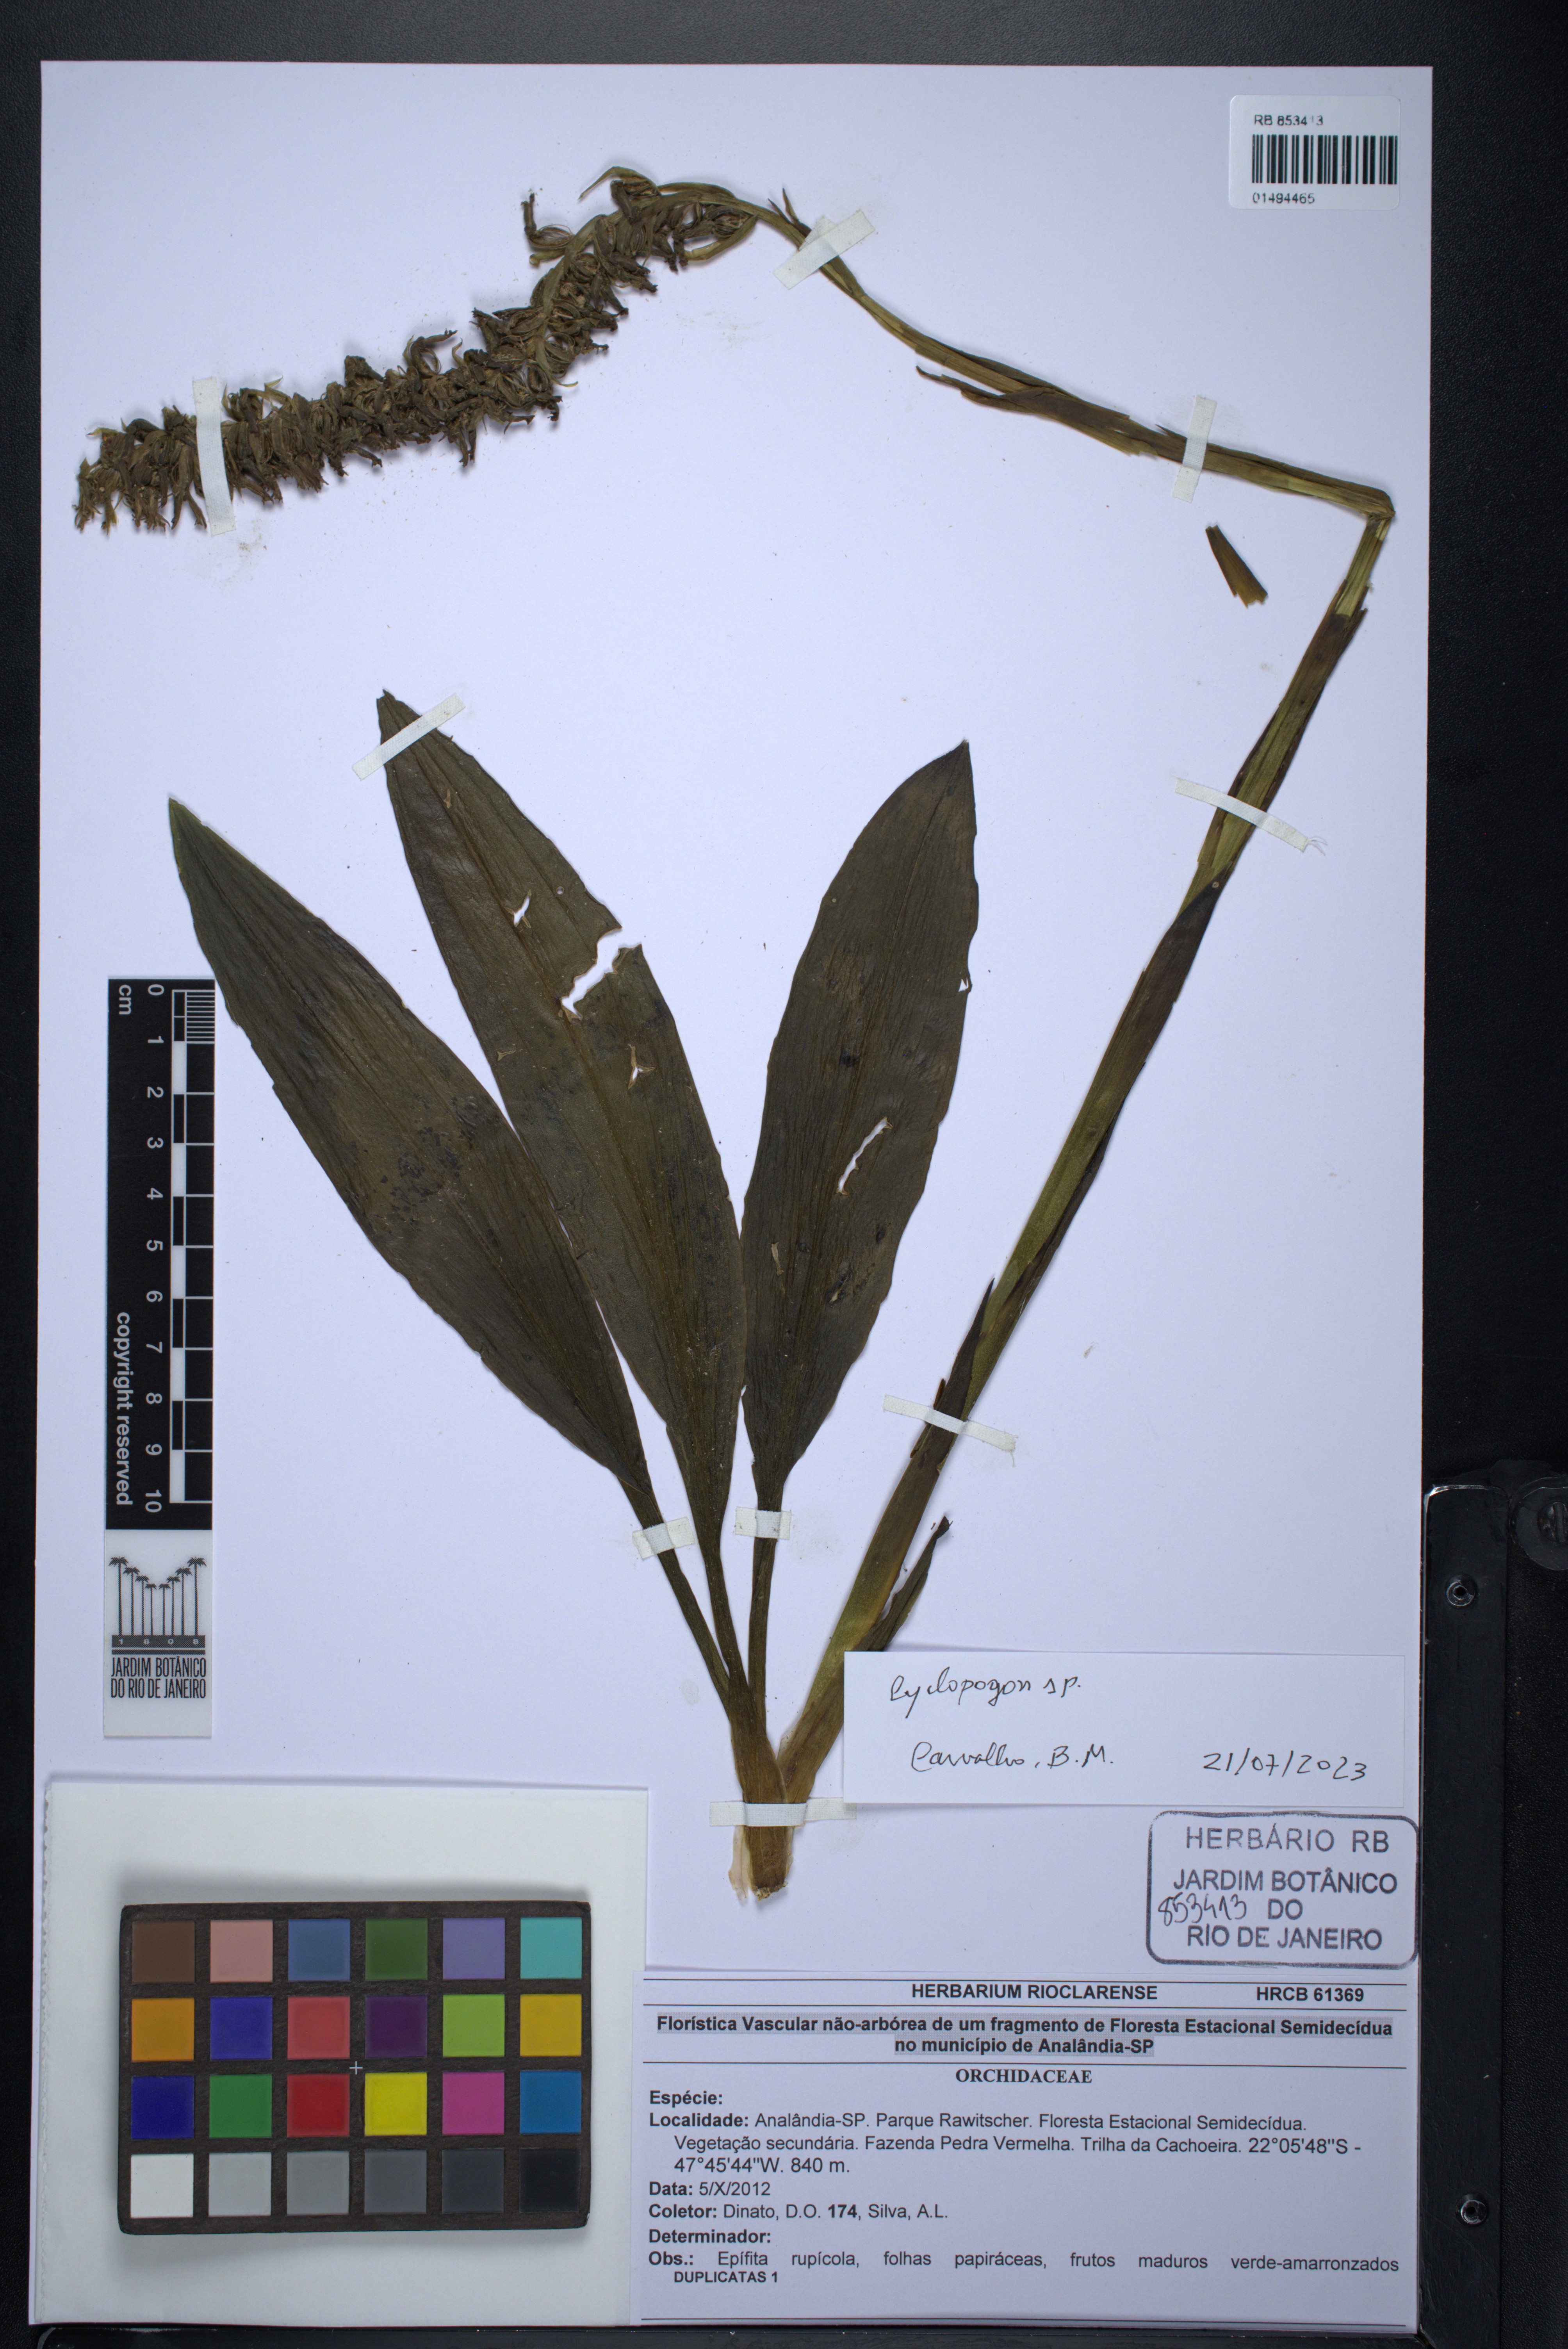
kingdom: Plantae
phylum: Tracheophyta
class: Liliopsida
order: Asparagales
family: Orchidaceae
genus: Cyclopogon
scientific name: Cyclopogon
